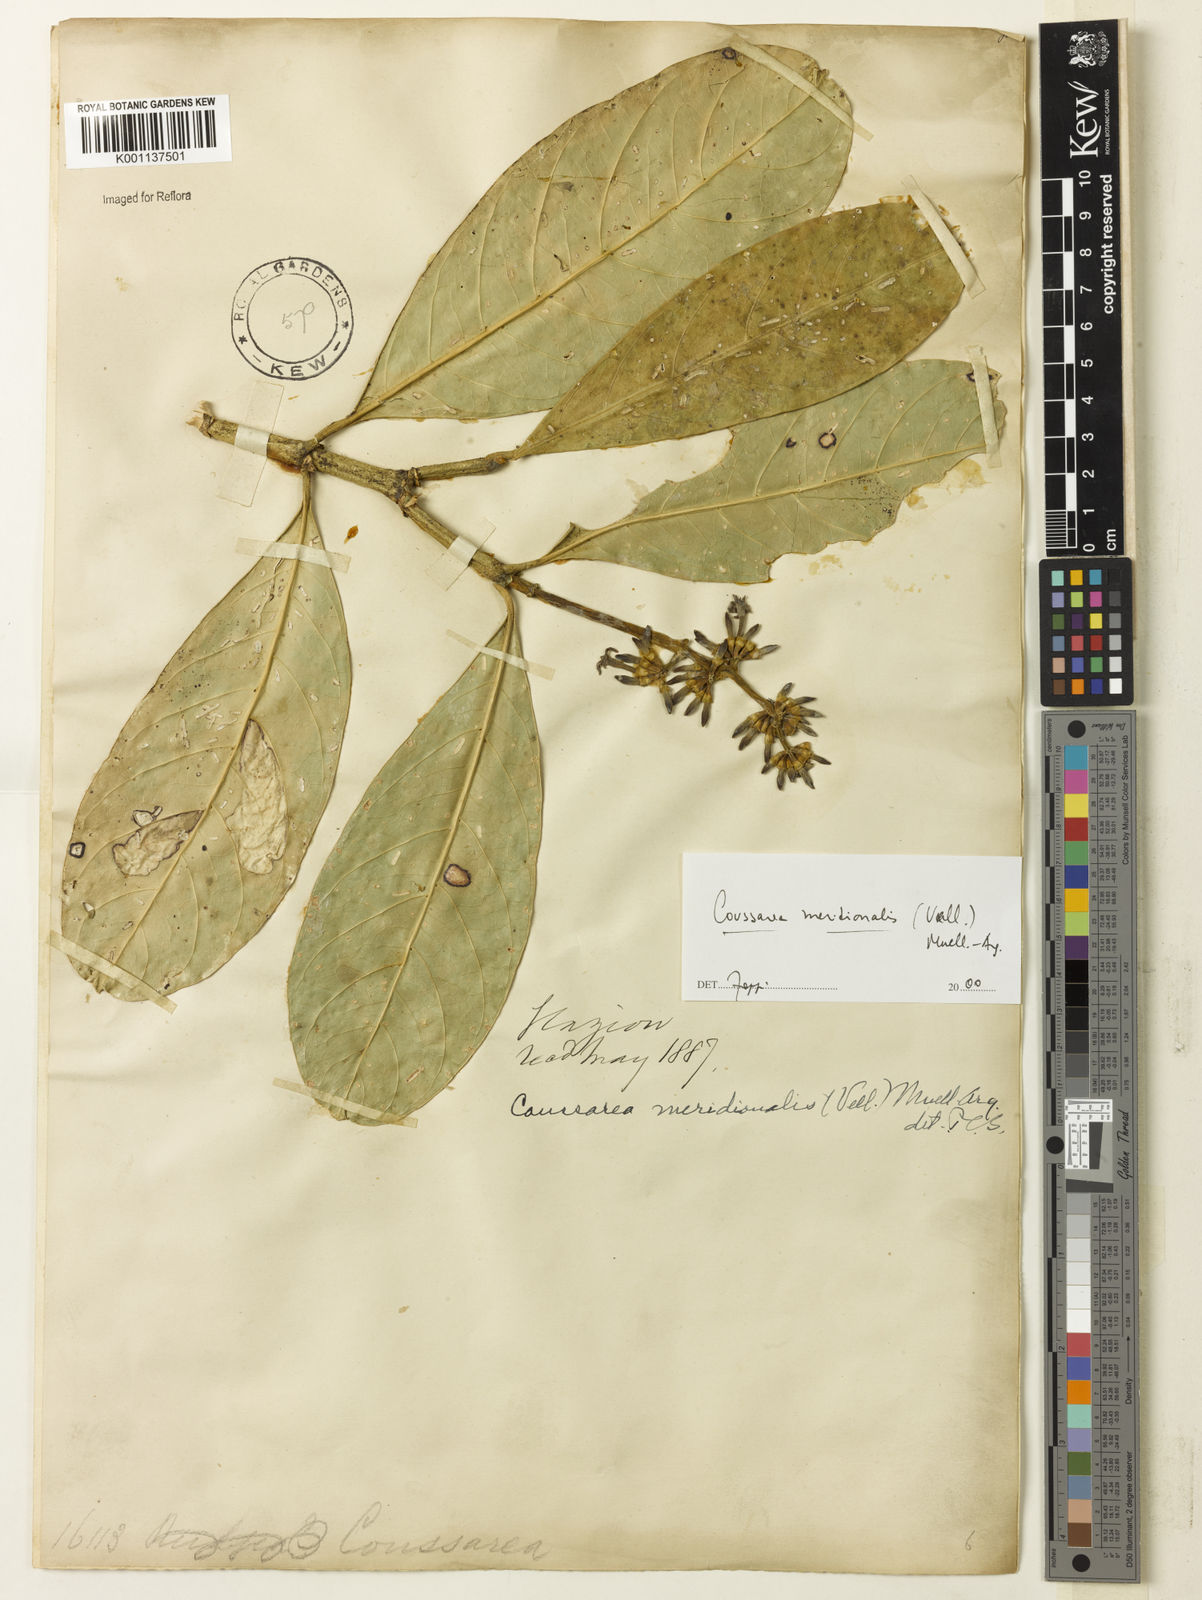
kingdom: Plantae
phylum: Tracheophyta
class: Magnoliopsida
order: Gentianales
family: Rubiaceae
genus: Coussarea
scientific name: Coussarea
